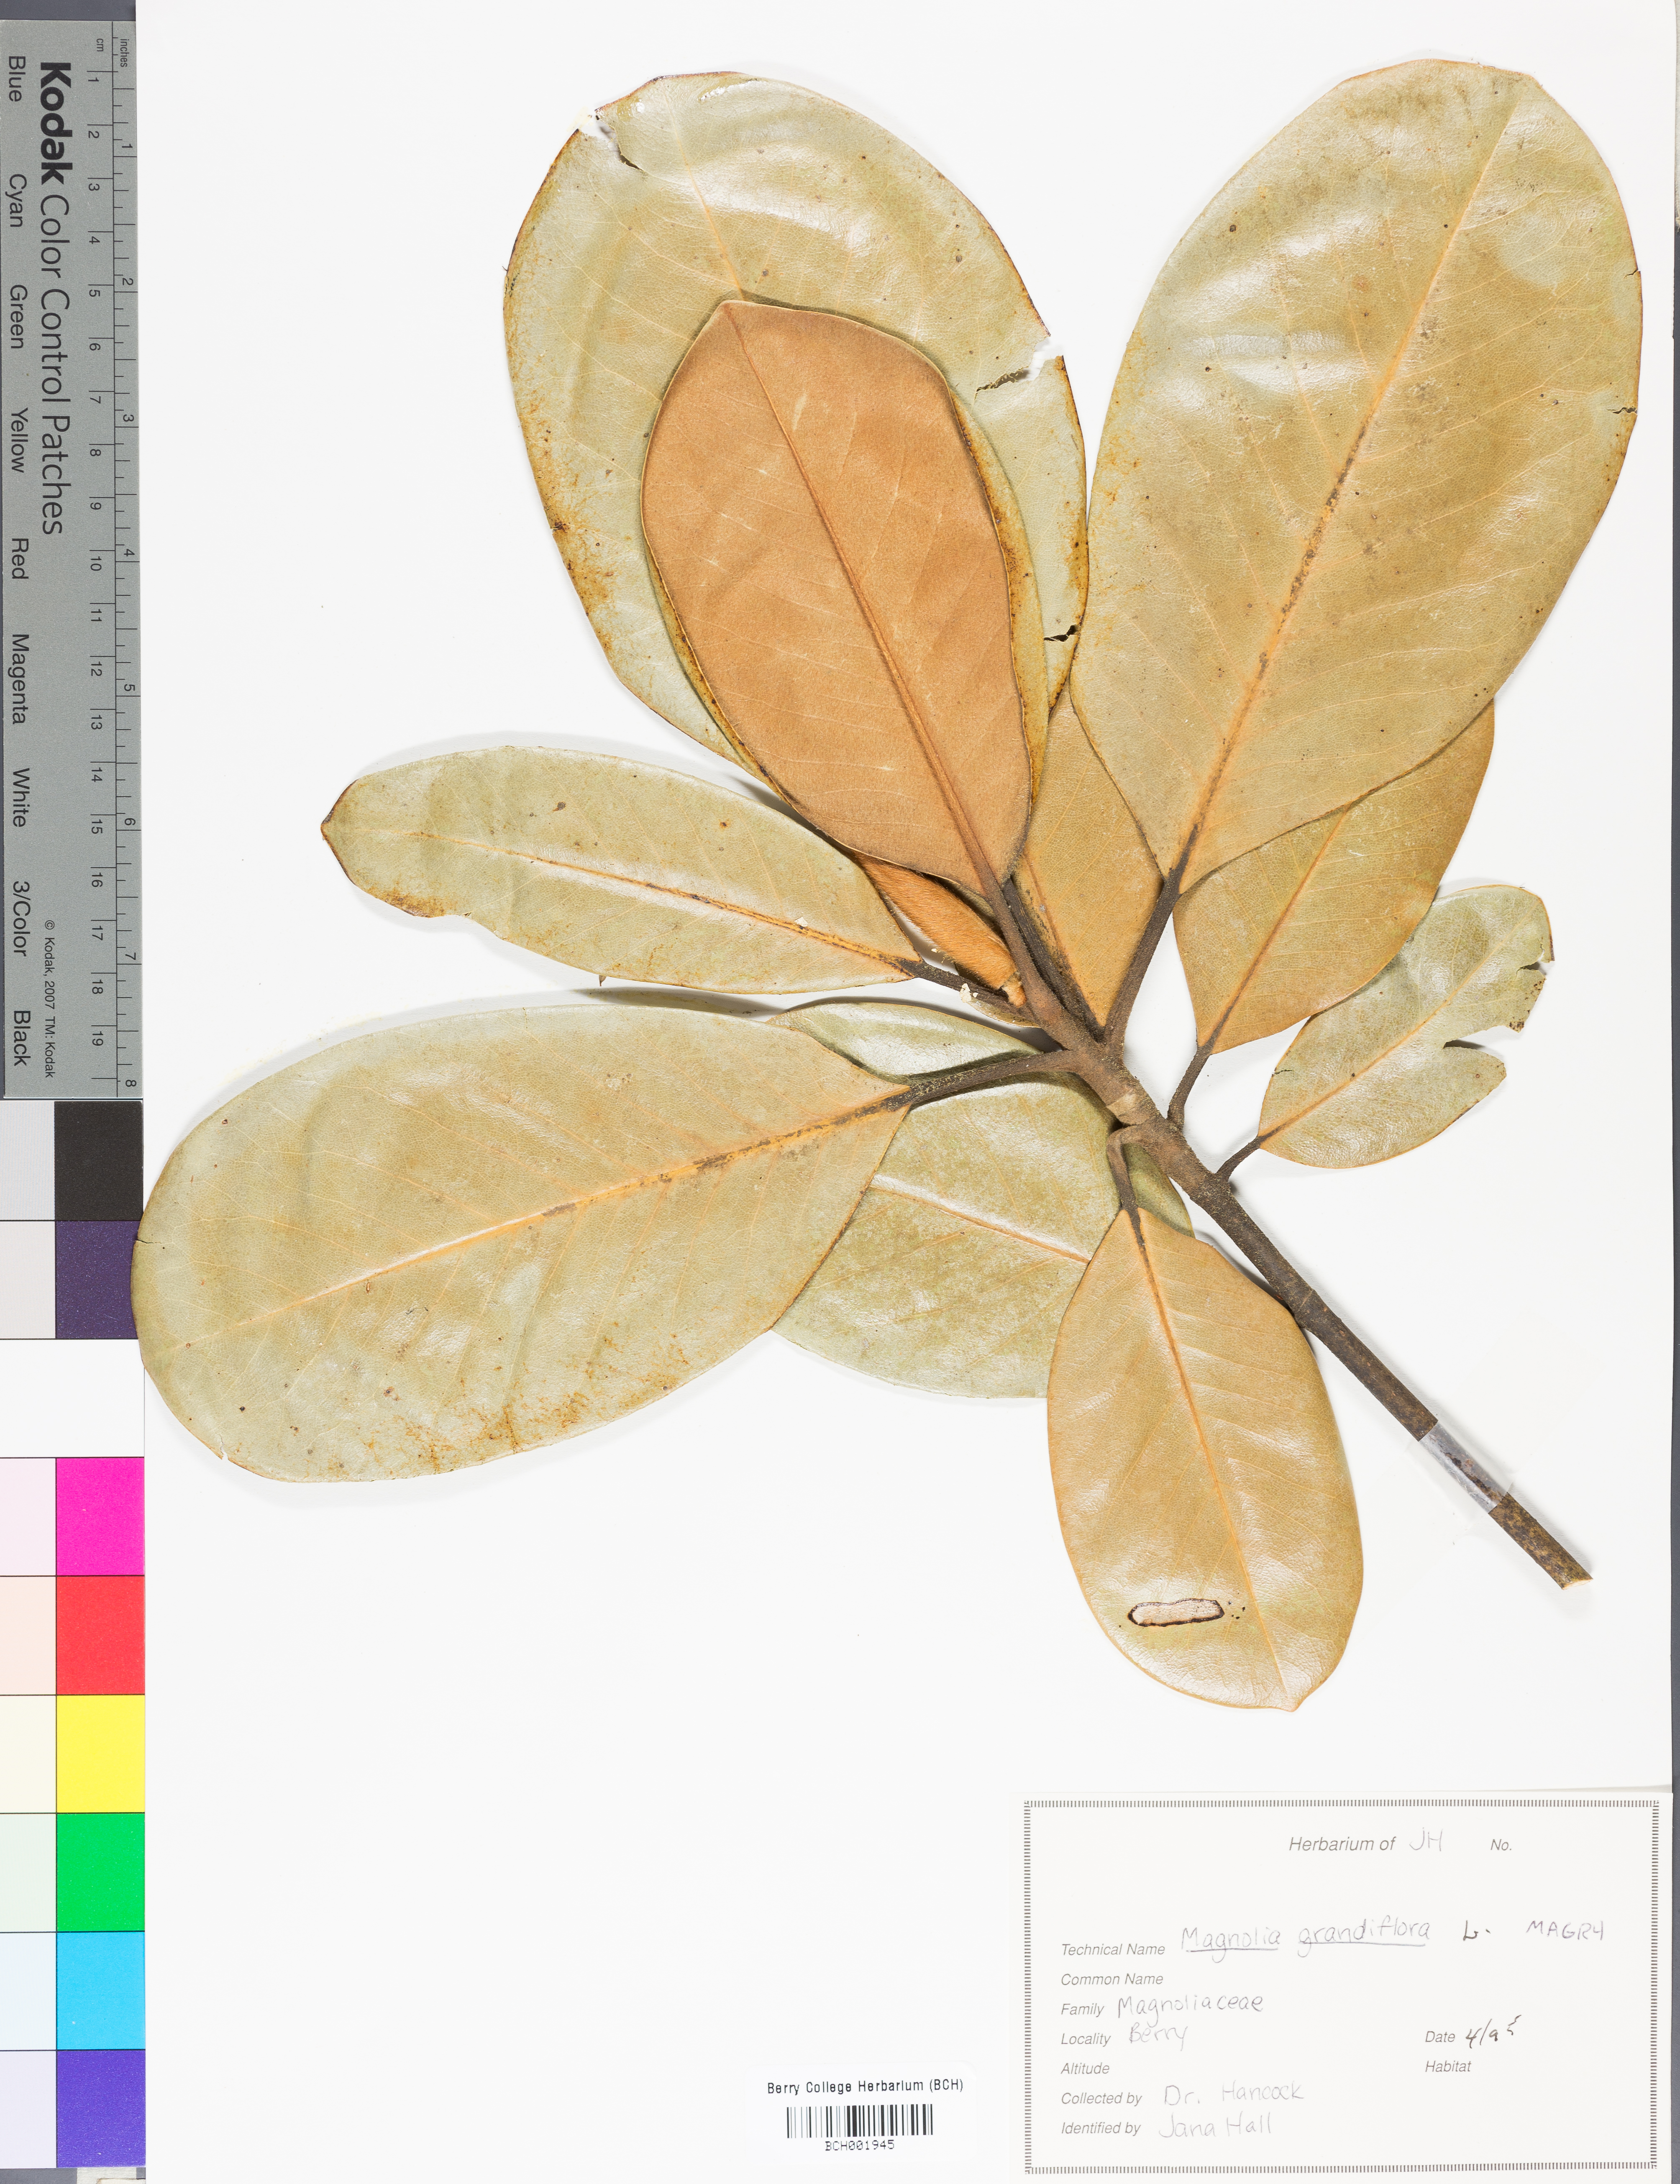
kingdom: Plantae
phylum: Tracheophyta
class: Magnoliopsida
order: Magnoliales
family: Magnoliaceae
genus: Magnolia
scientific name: Magnolia grandiflora
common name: Southern magnolia
